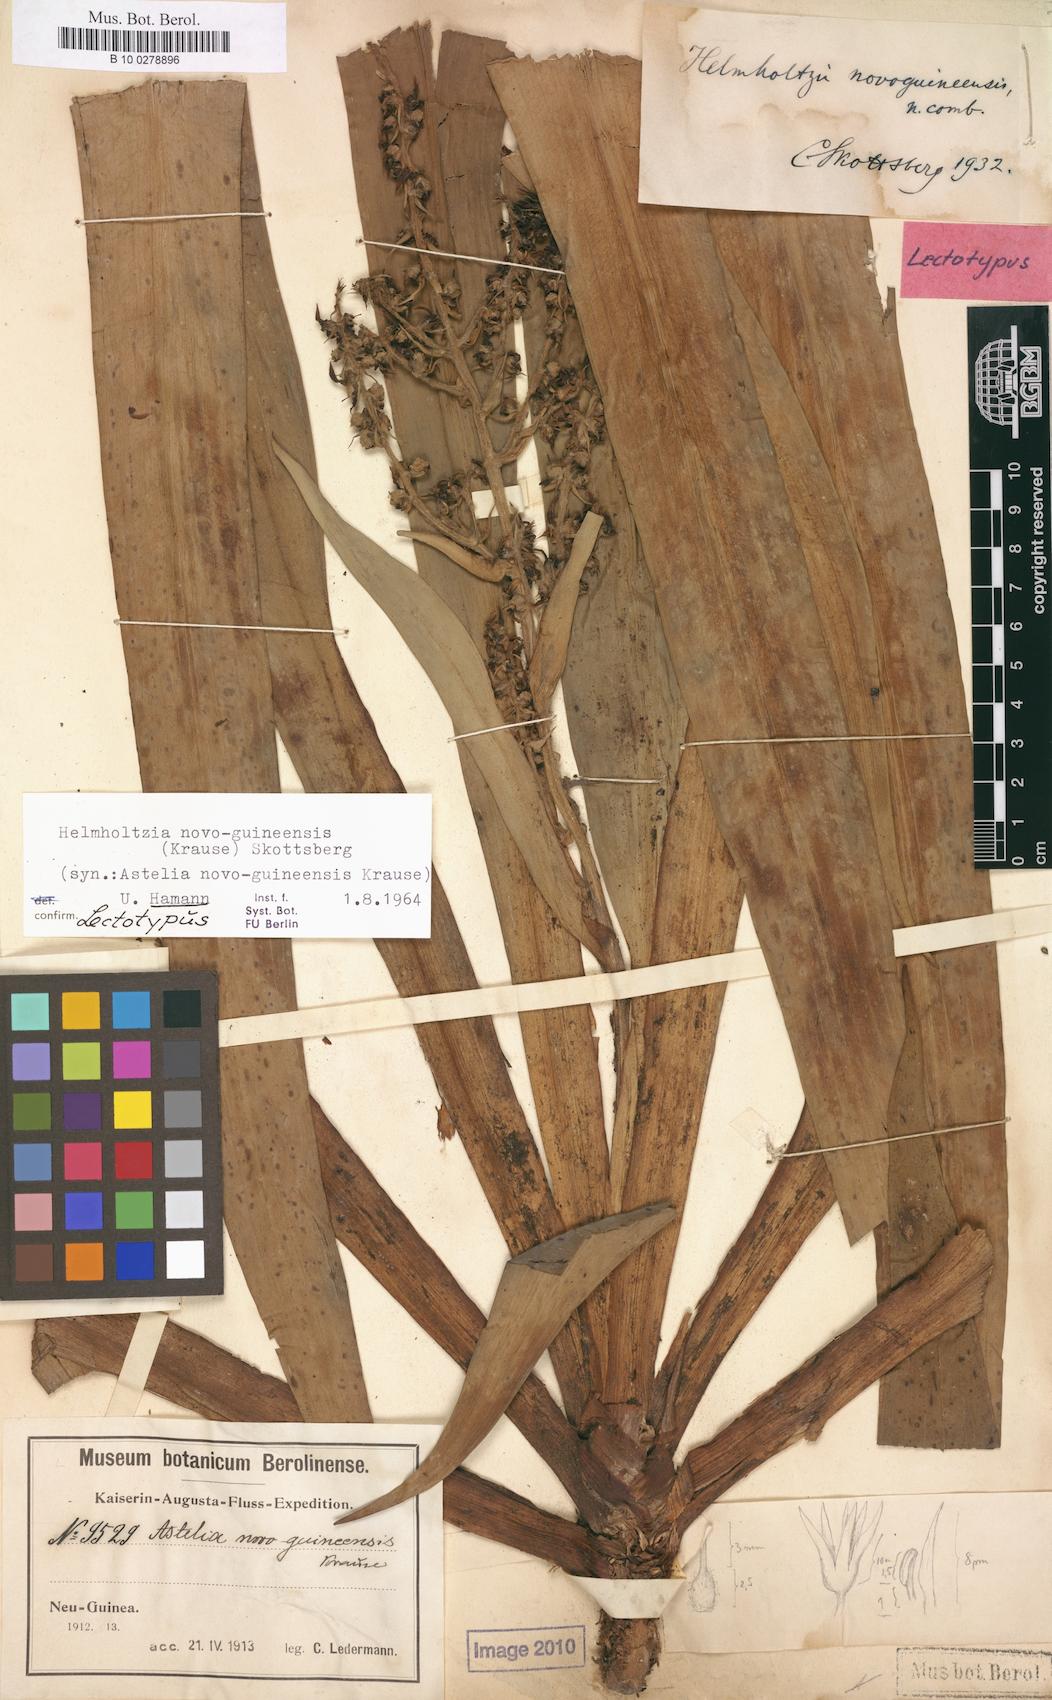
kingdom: Plantae
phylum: Tracheophyta
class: Liliopsida
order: Commelinales
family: Philydraceae
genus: Helmholtzia
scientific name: Helmholtzia novoguineensis
